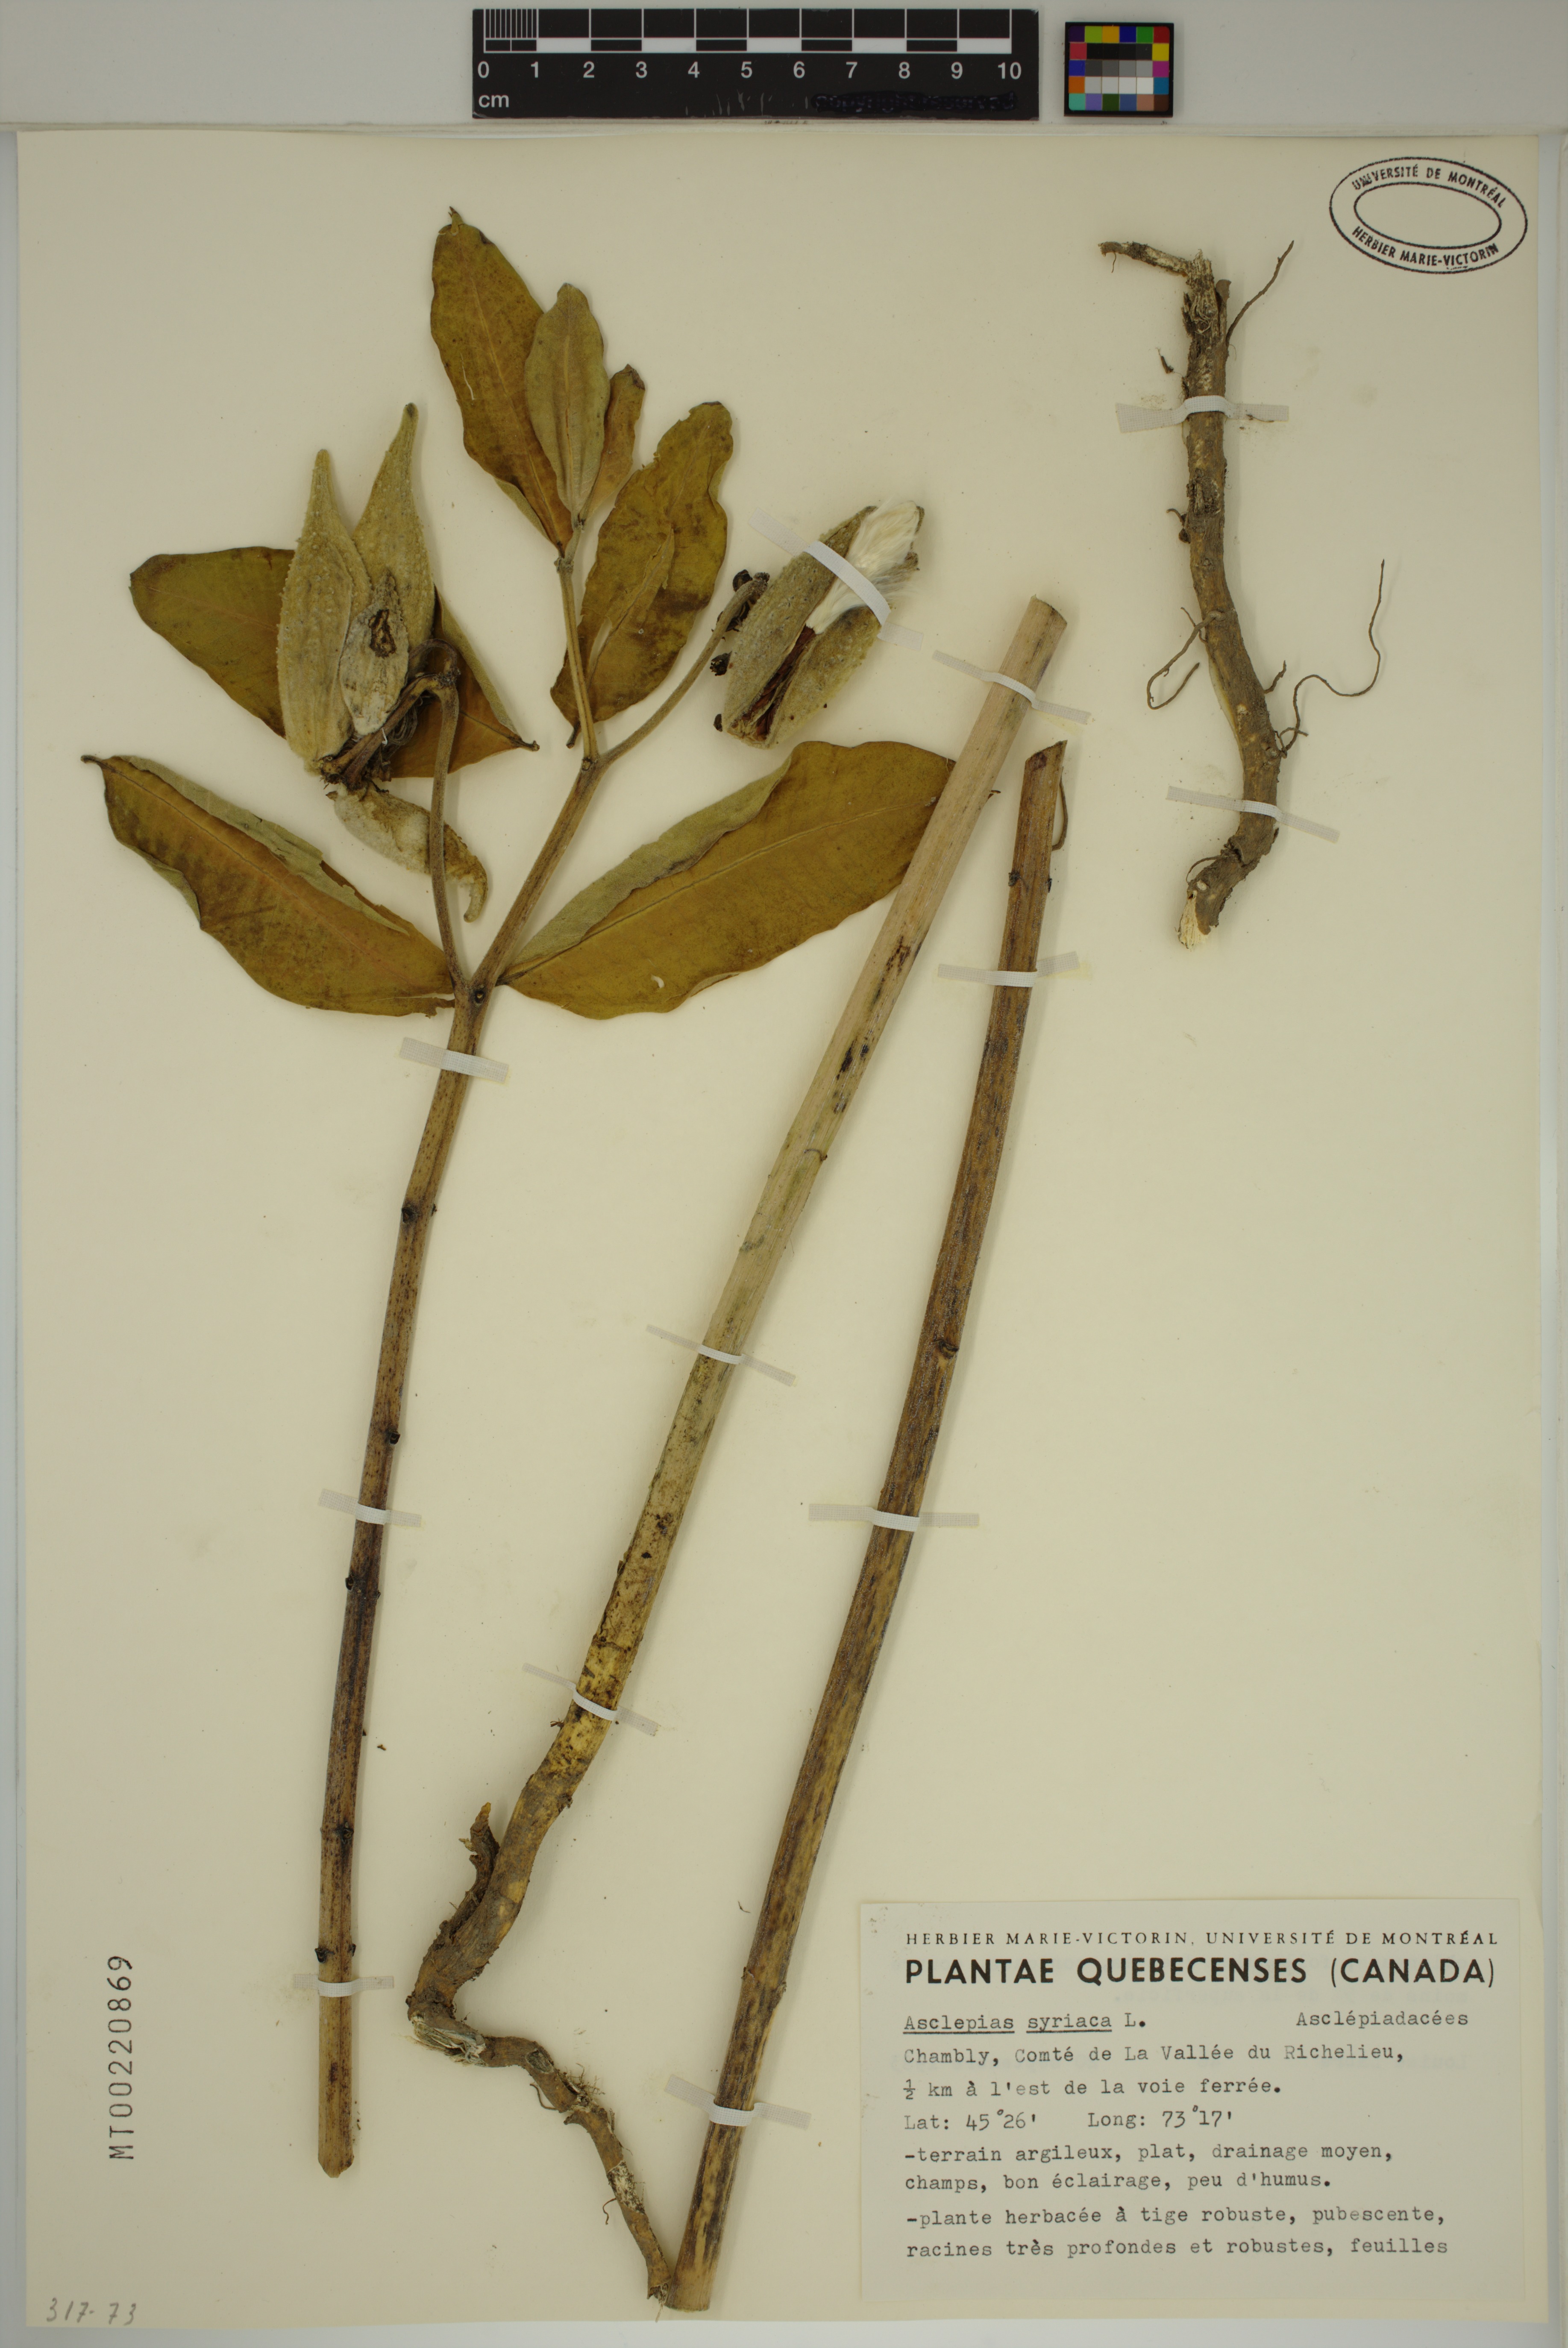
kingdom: Plantae
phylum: Tracheophyta
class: Magnoliopsida
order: Gentianales
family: Apocynaceae
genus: Asclepias
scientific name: Asclepias syriaca
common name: Common milkweed
